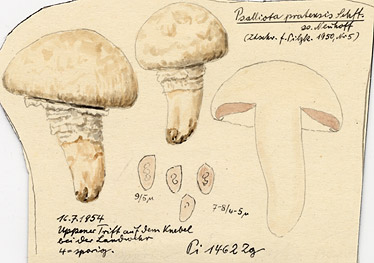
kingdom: Fungi
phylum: Basidiomycota
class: Agaricomycetes
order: Agaricales
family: Agaricaceae
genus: Agaricus
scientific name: Agaricus pratensis
